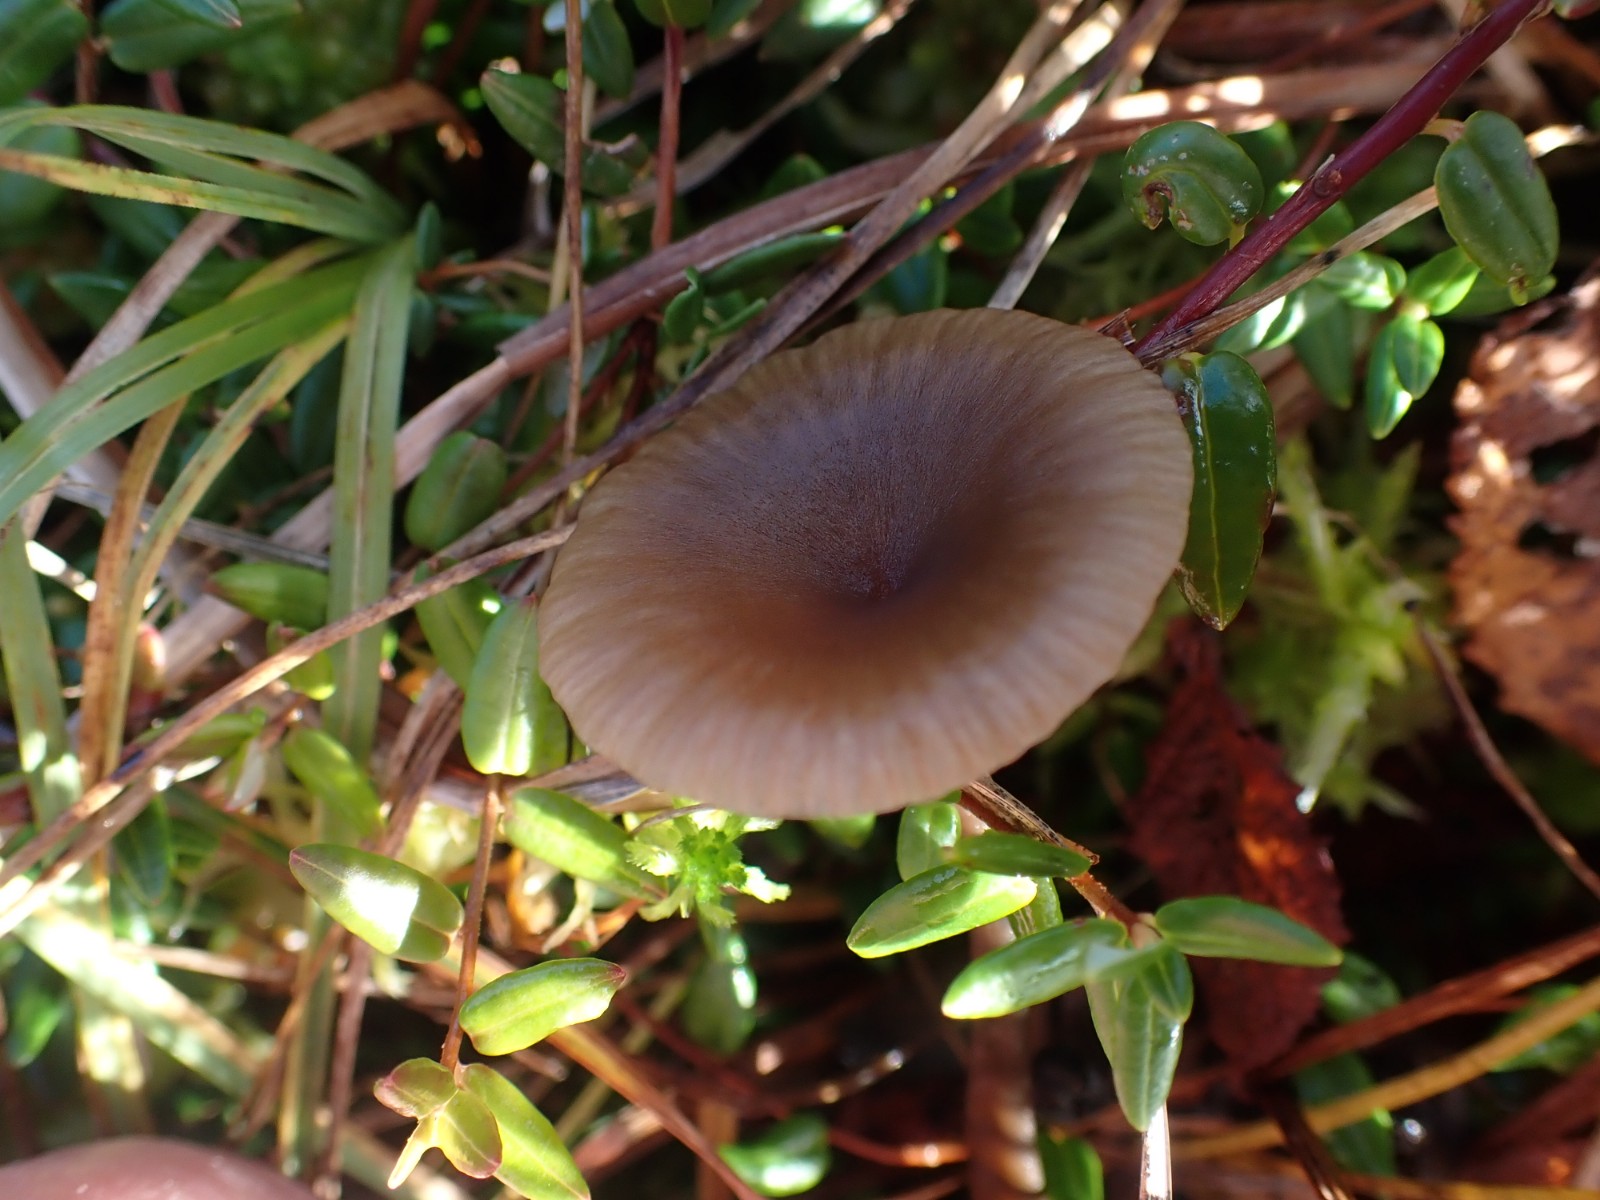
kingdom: Fungi
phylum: Basidiomycota
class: Agaricomycetes
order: Agaricales
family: Hygrophoraceae
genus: Arrhenia
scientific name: Arrhenia gerardiana
